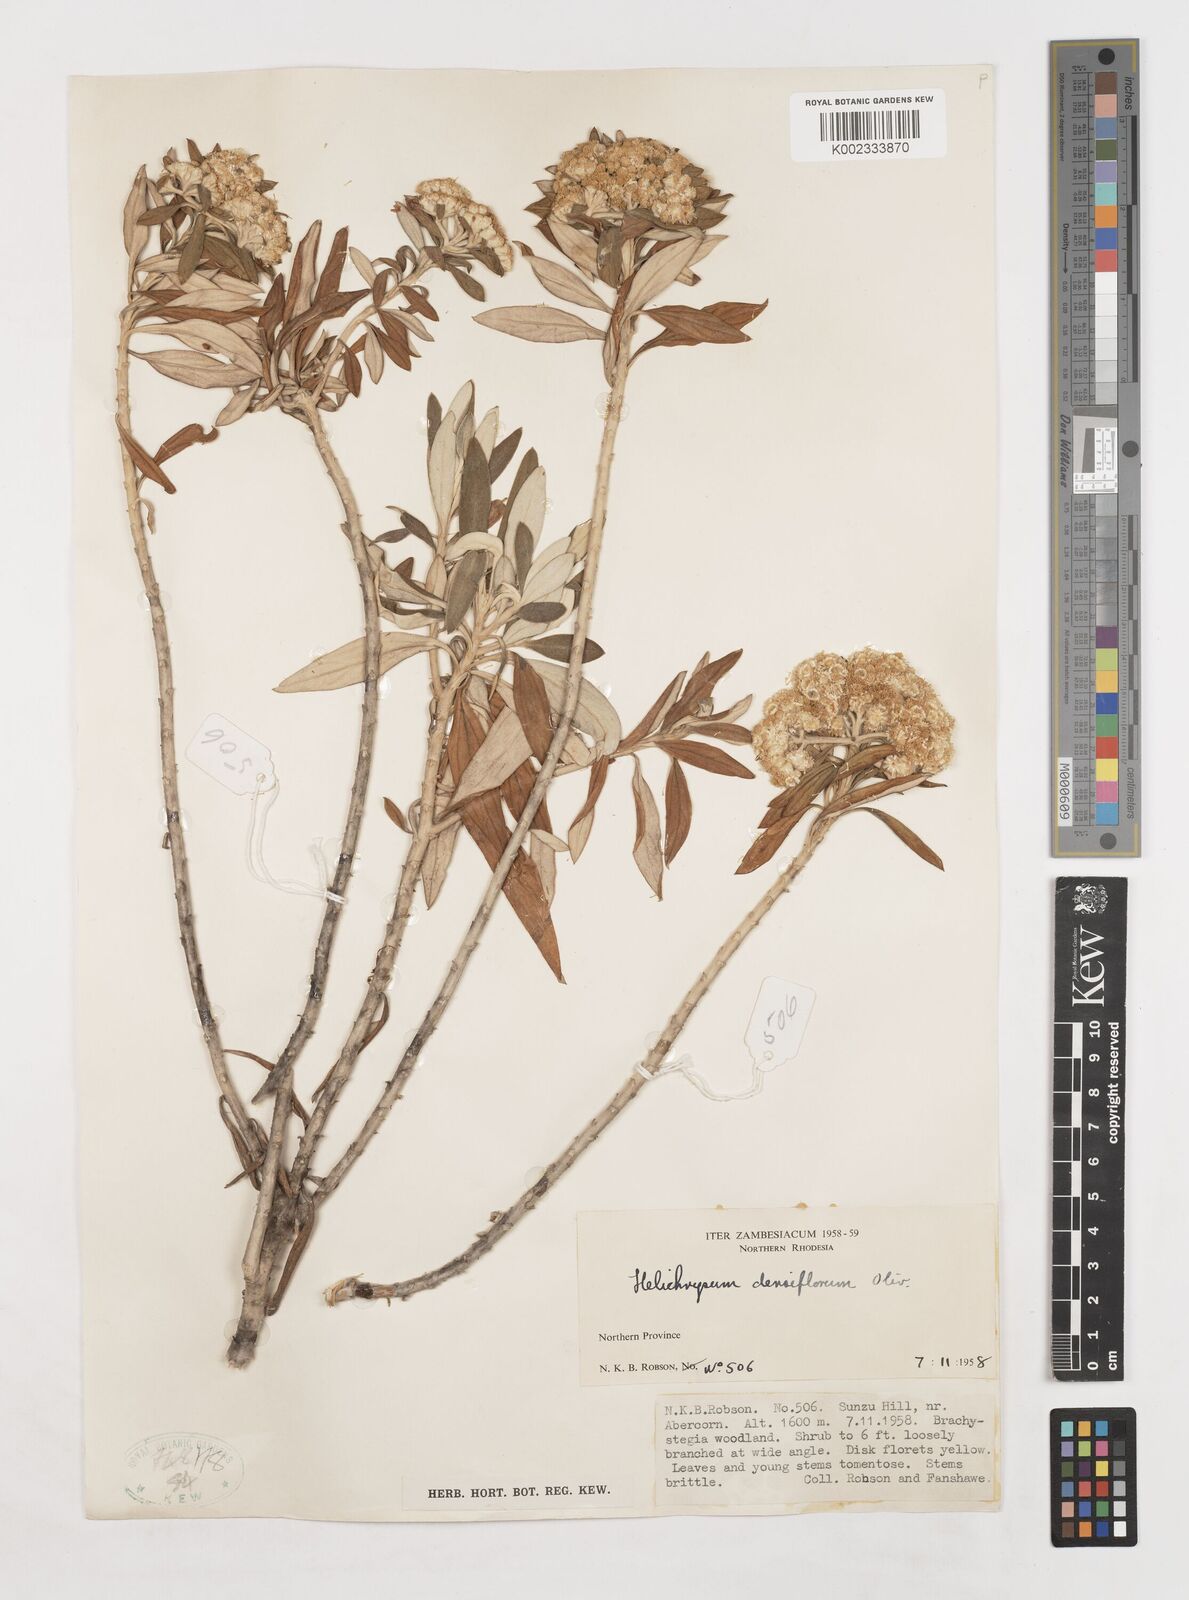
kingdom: Plantae
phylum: Tracheophyta
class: Magnoliopsida
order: Asterales
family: Asteraceae
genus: Helichrysum
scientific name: Helichrysum densiflorum
